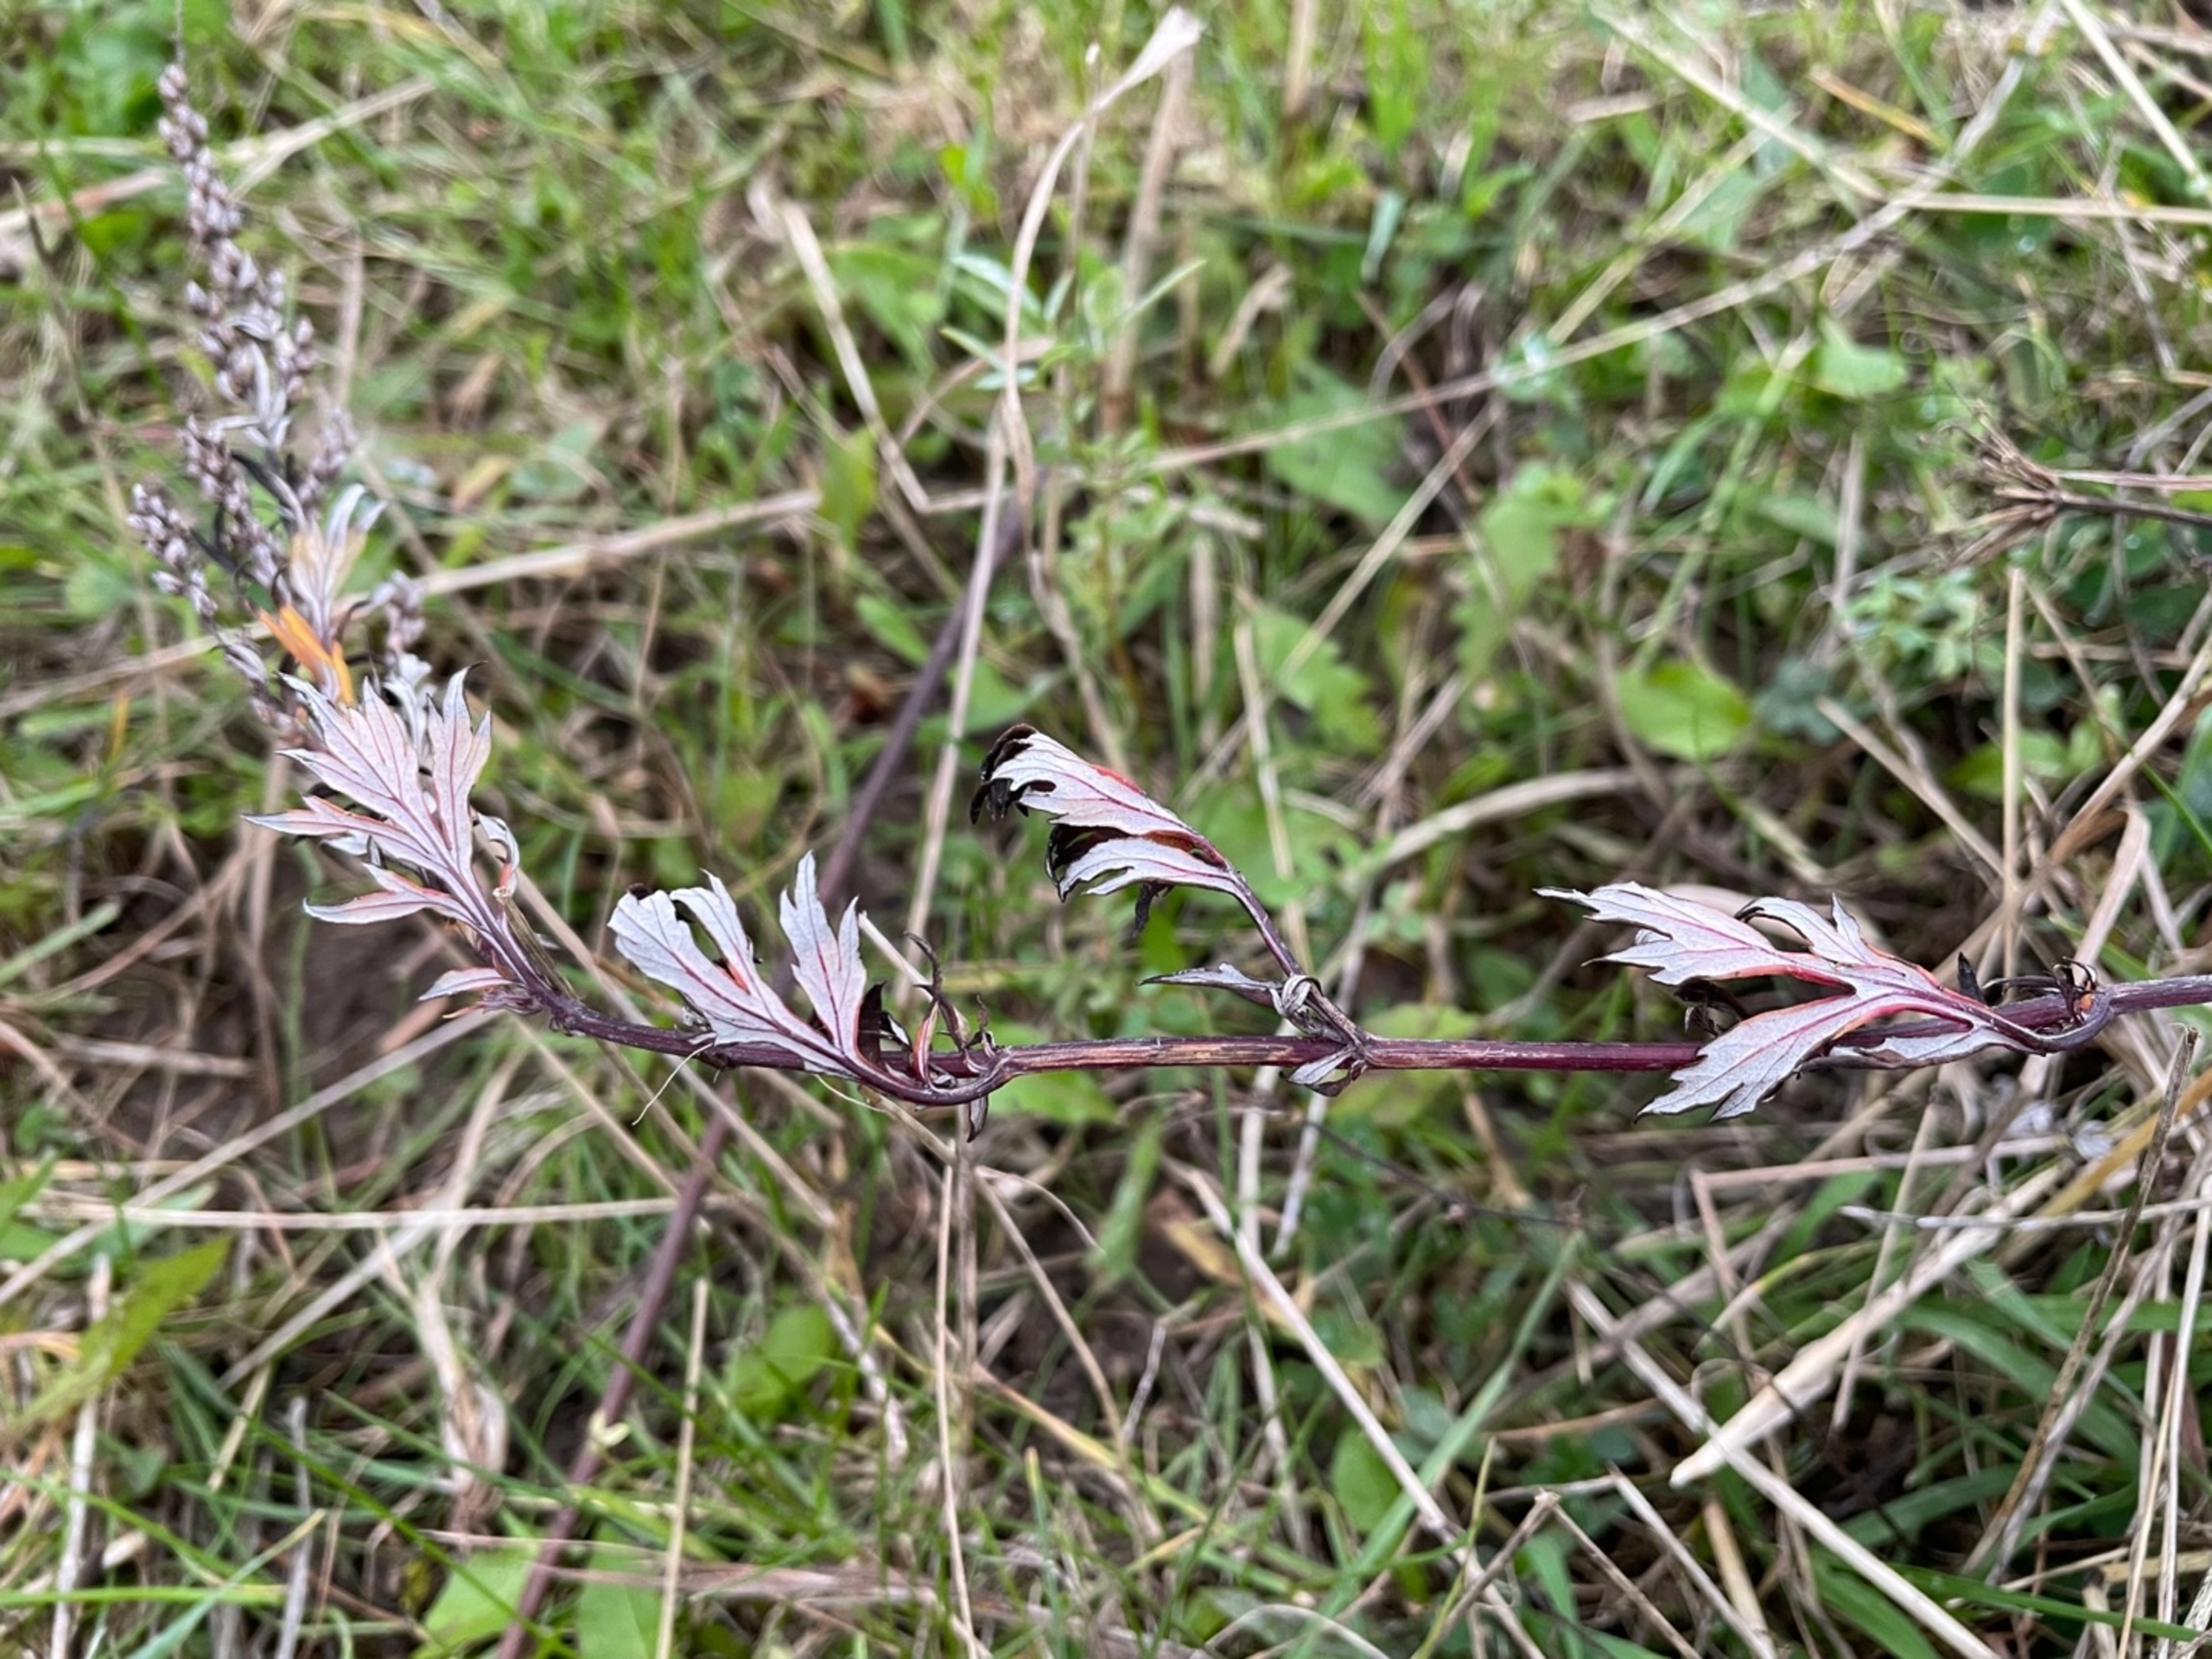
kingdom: Plantae
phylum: Tracheophyta
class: Magnoliopsida
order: Asterales
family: Asteraceae
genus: Artemisia
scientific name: Artemisia vulgaris
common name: Grå-bynke
